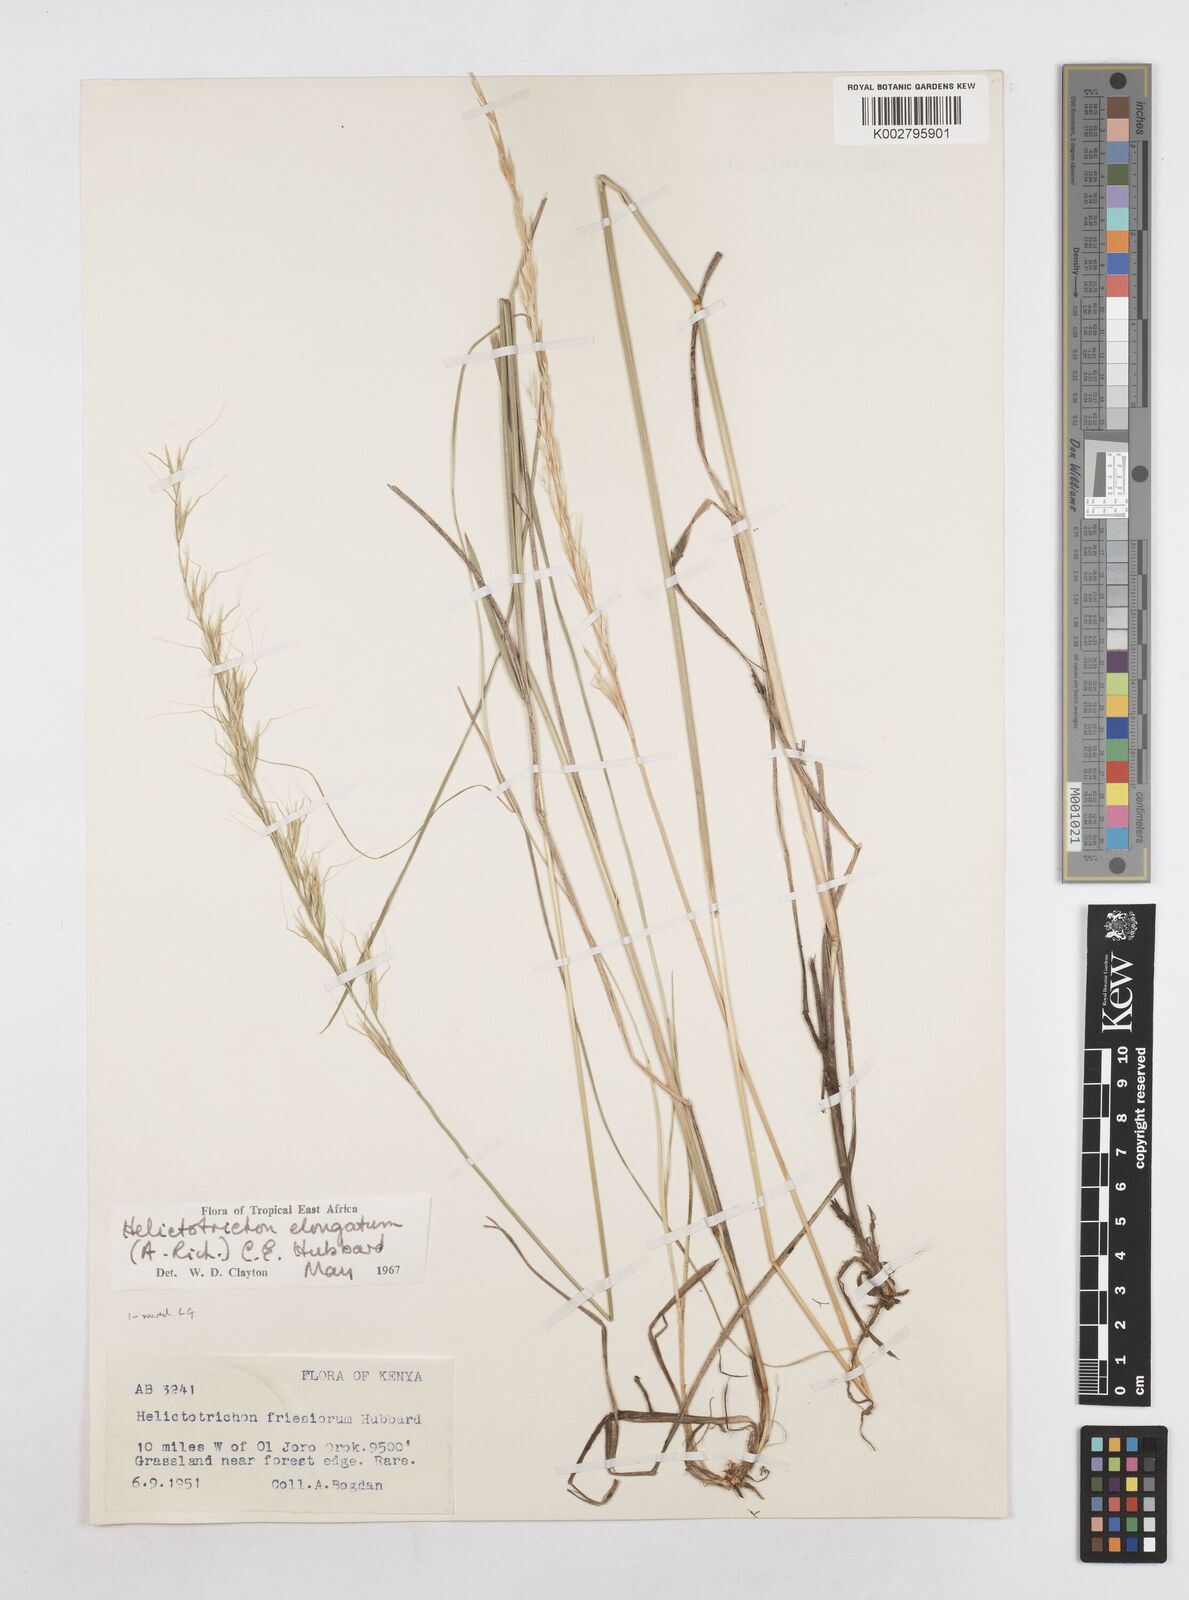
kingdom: Plantae
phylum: Tracheophyta
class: Liliopsida
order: Poales
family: Poaceae
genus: Trisetopsis
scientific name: Trisetopsis elongata
